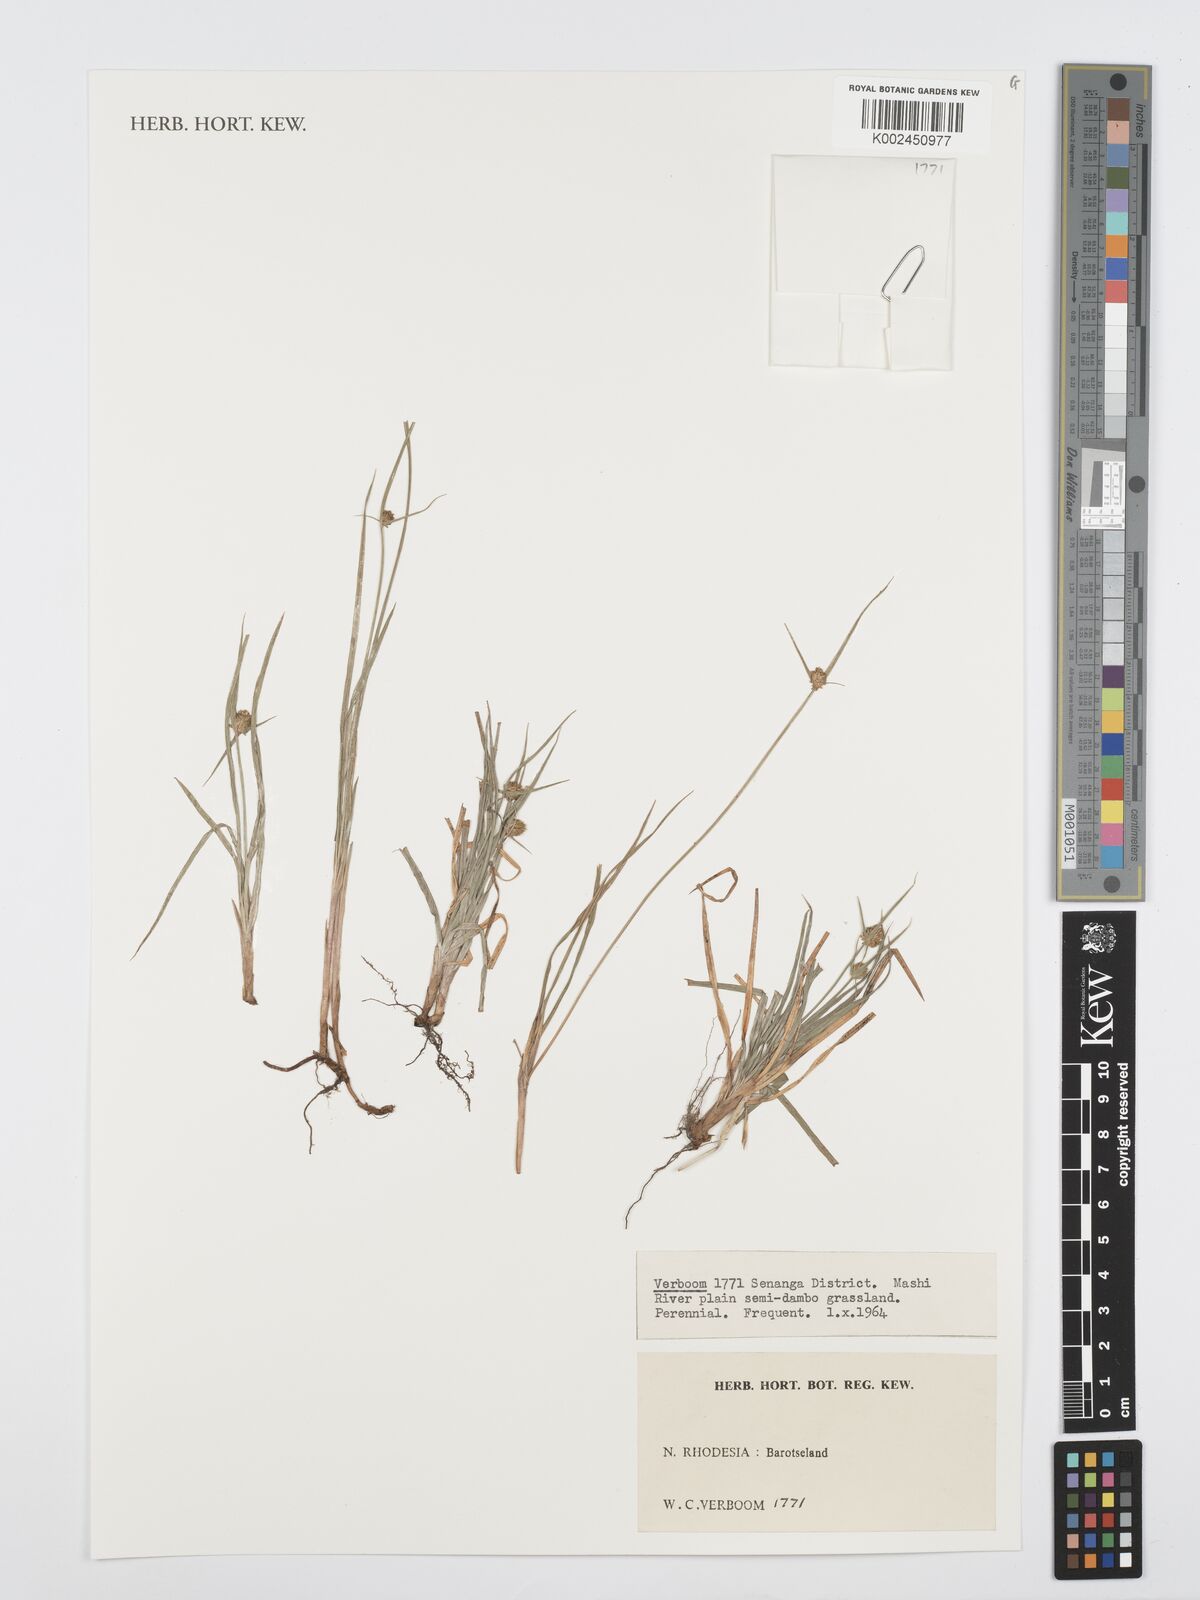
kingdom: Plantae
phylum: Tracheophyta
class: Liliopsida
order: Poales
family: Cyperaceae
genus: Cyperus
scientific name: Cyperus
